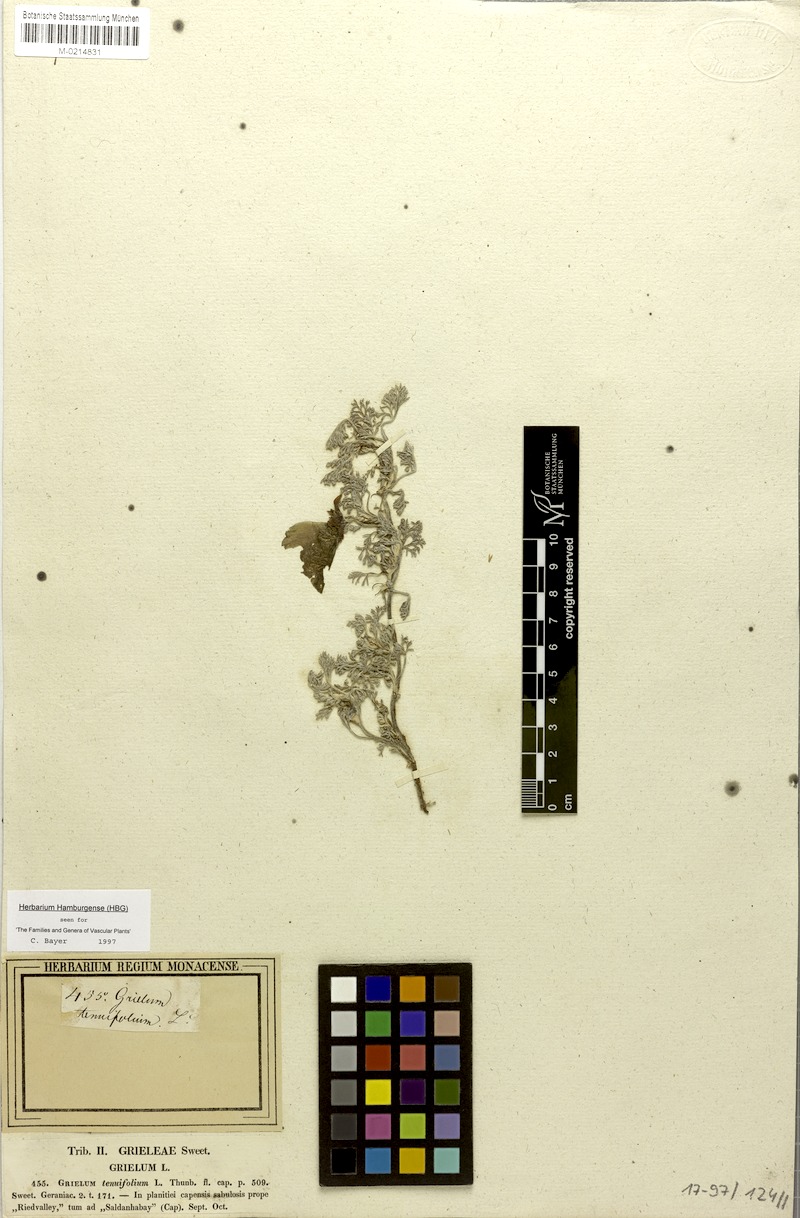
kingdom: Plantae
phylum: Tracheophyta
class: Magnoliopsida
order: Malvales
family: Neuradaceae
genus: Grielum
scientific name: Grielum grandiflorum
